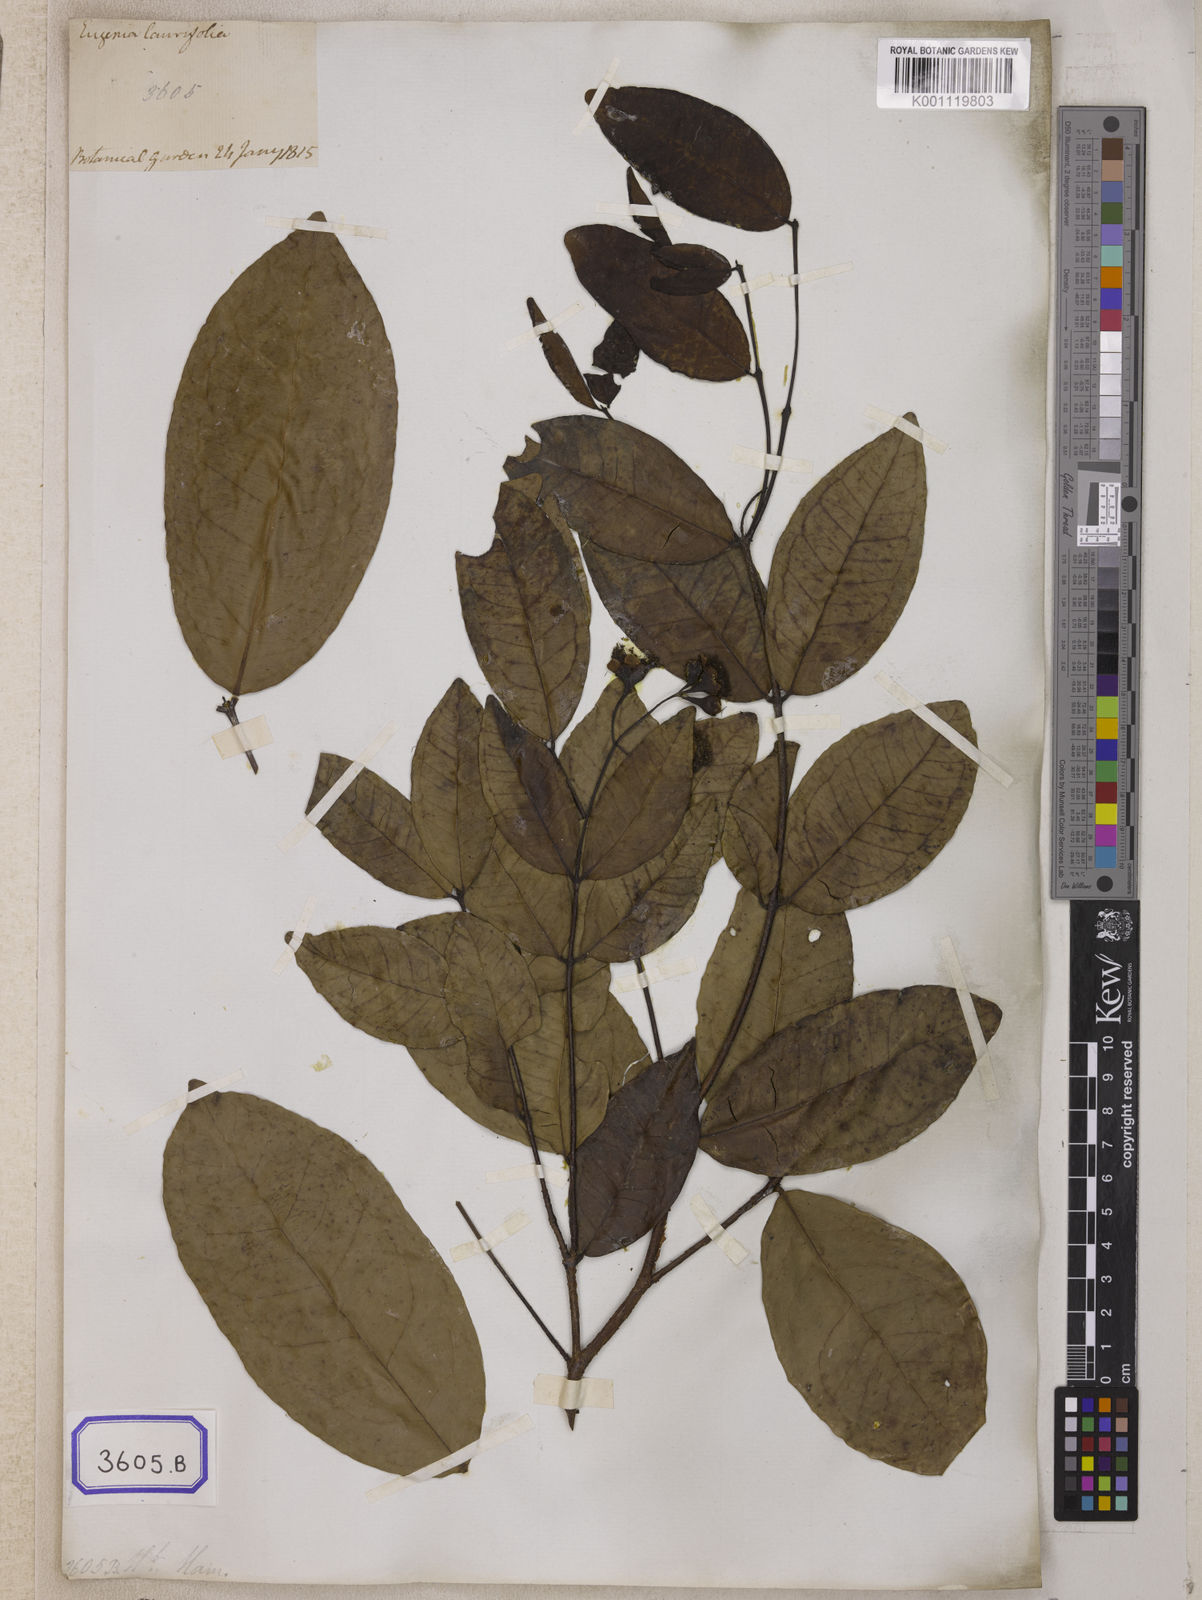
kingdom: Plantae
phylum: Tracheophyta
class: Magnoliopsida
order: Myrtales
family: Myrtaceae
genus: Syzygium
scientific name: Syzygium laurifolium
